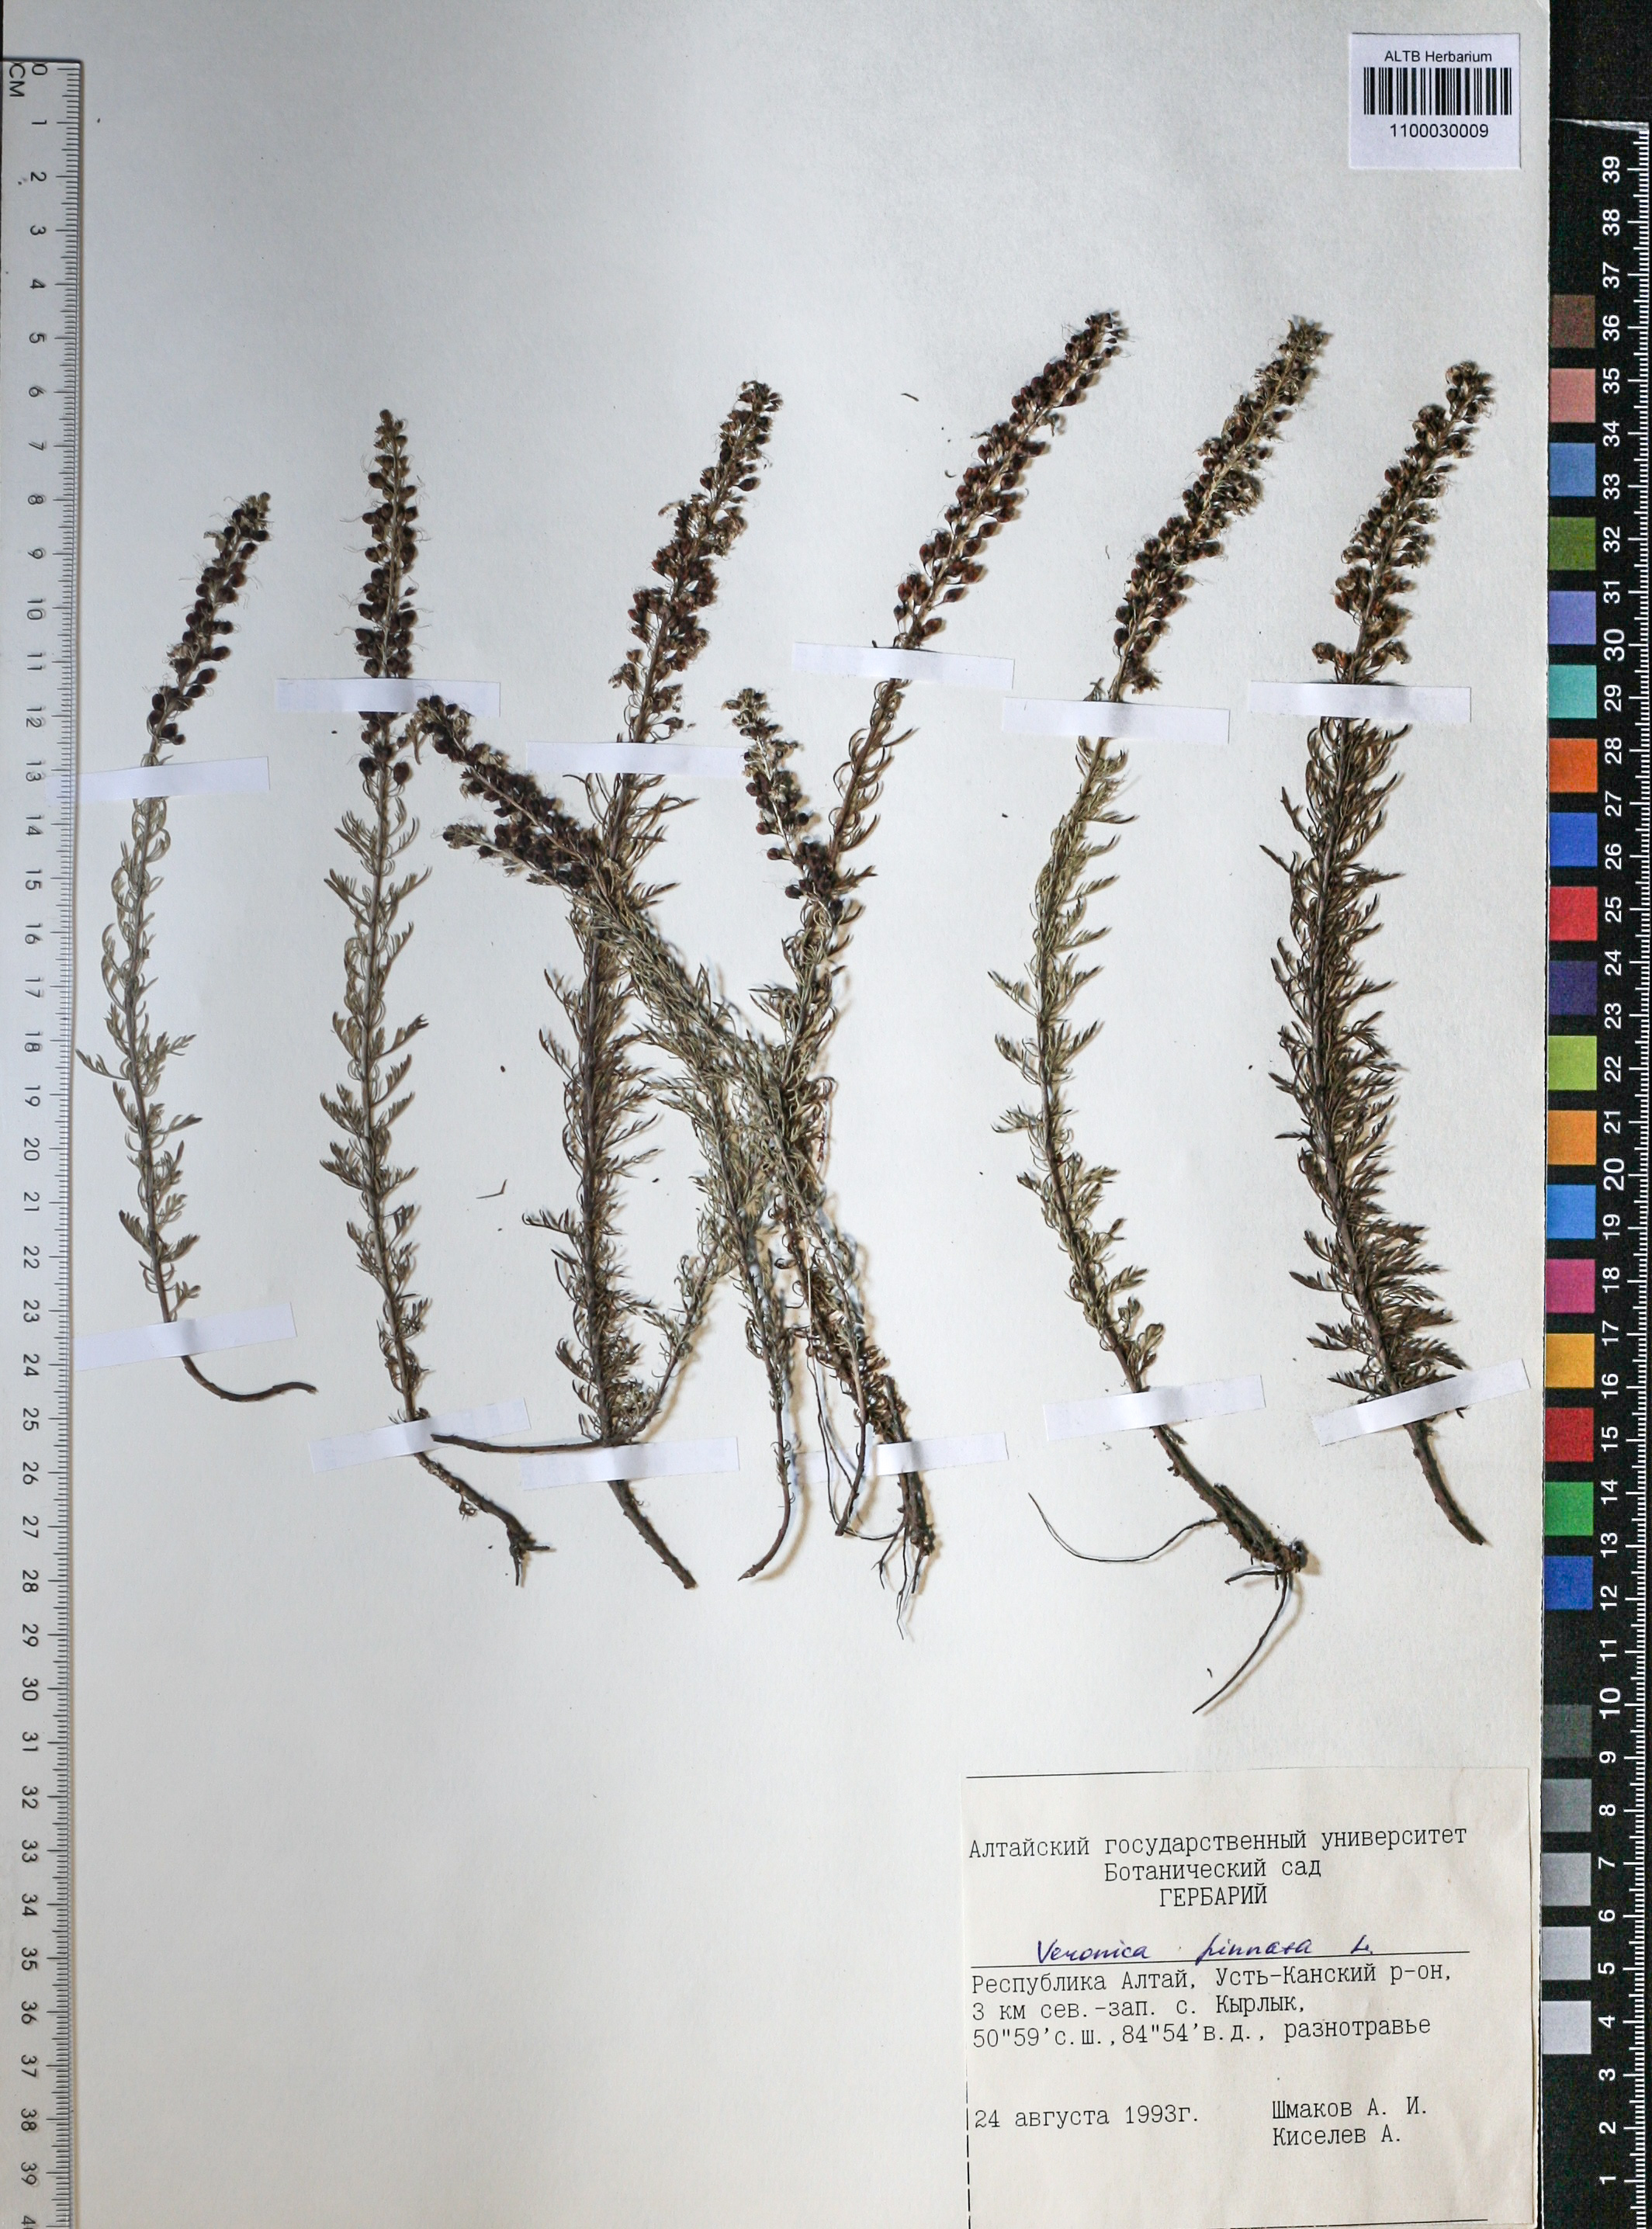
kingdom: Plantae
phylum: Tracheophyta
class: Magnoliopsida
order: Lamiales
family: Plantaginaceae
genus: Veronica
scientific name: Veronica pinnata
